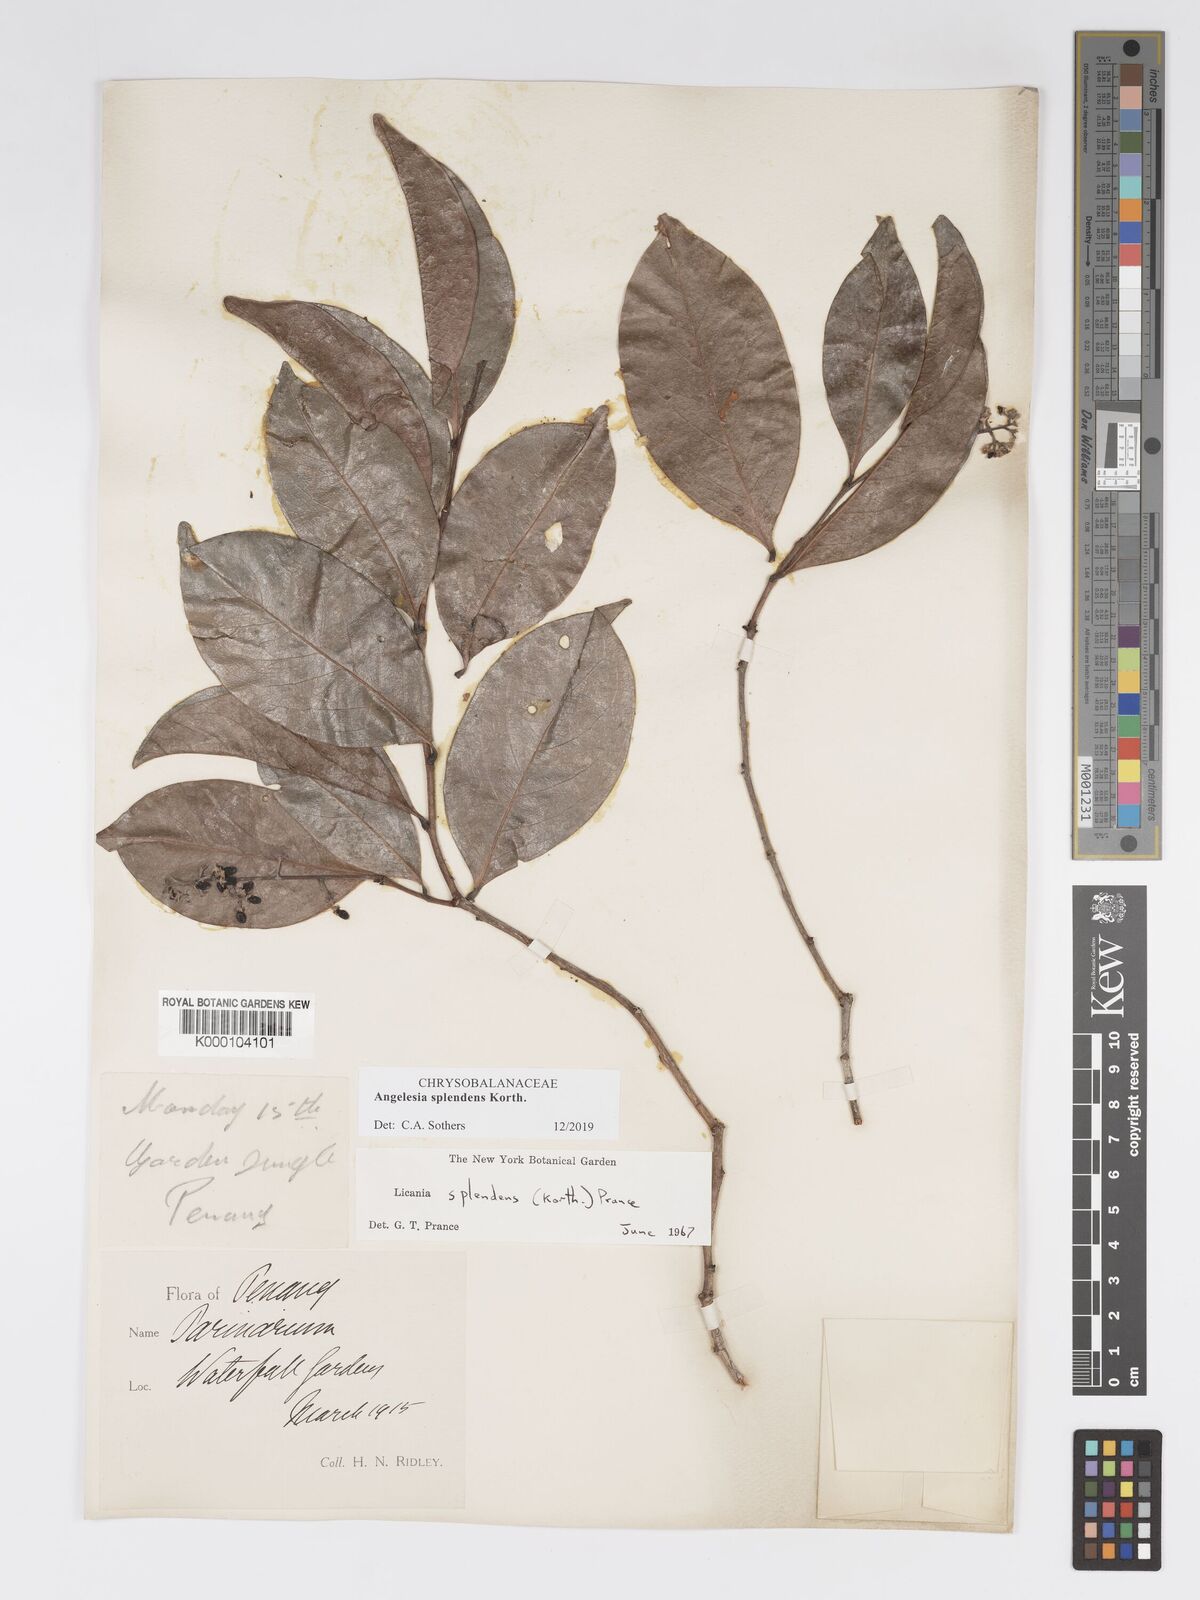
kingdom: Plantae
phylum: Tracheophyta
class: Magnoliopsida
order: Malpighiales
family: Chrysobalanaceae
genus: Angelesia
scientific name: Angelesia splendens
